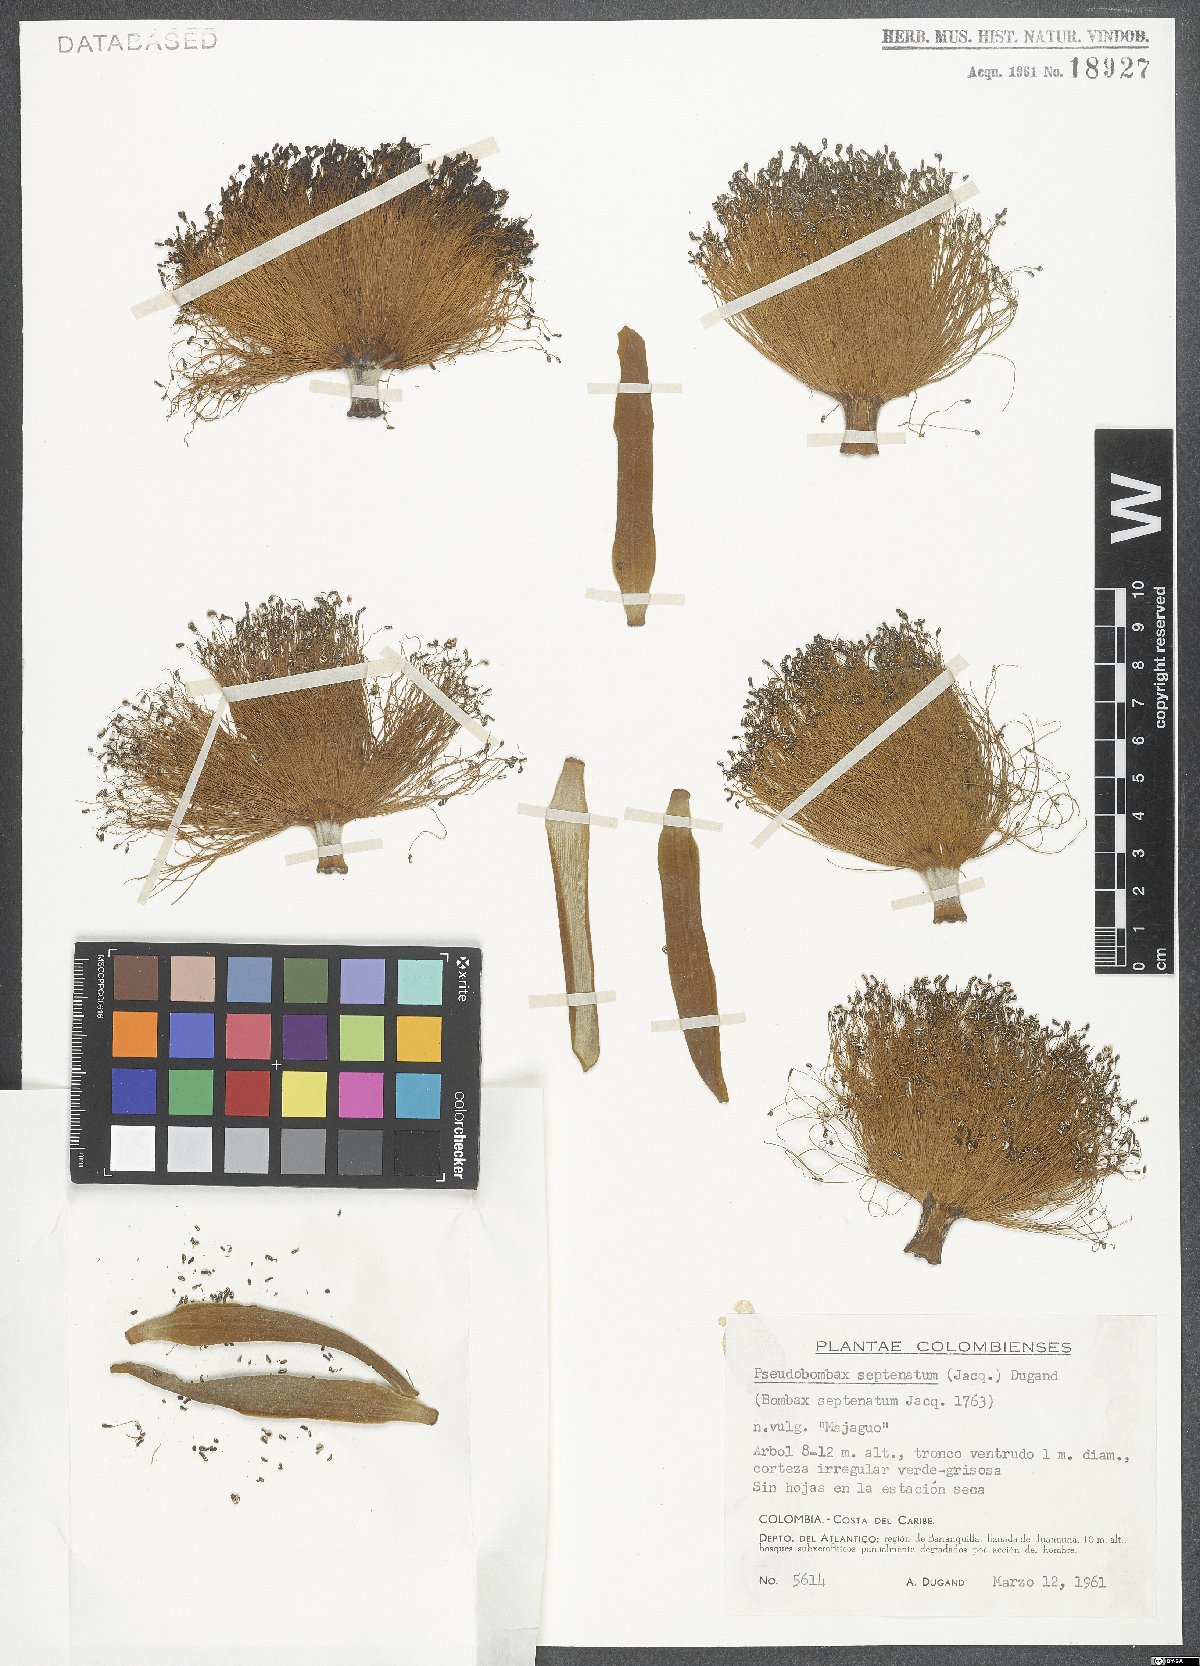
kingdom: Plantae
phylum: Tracheophyta
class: Magnoliopsida
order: Malvales
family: Malvaceae
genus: Pseudobombax
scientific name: Pseudobombax septenatum
